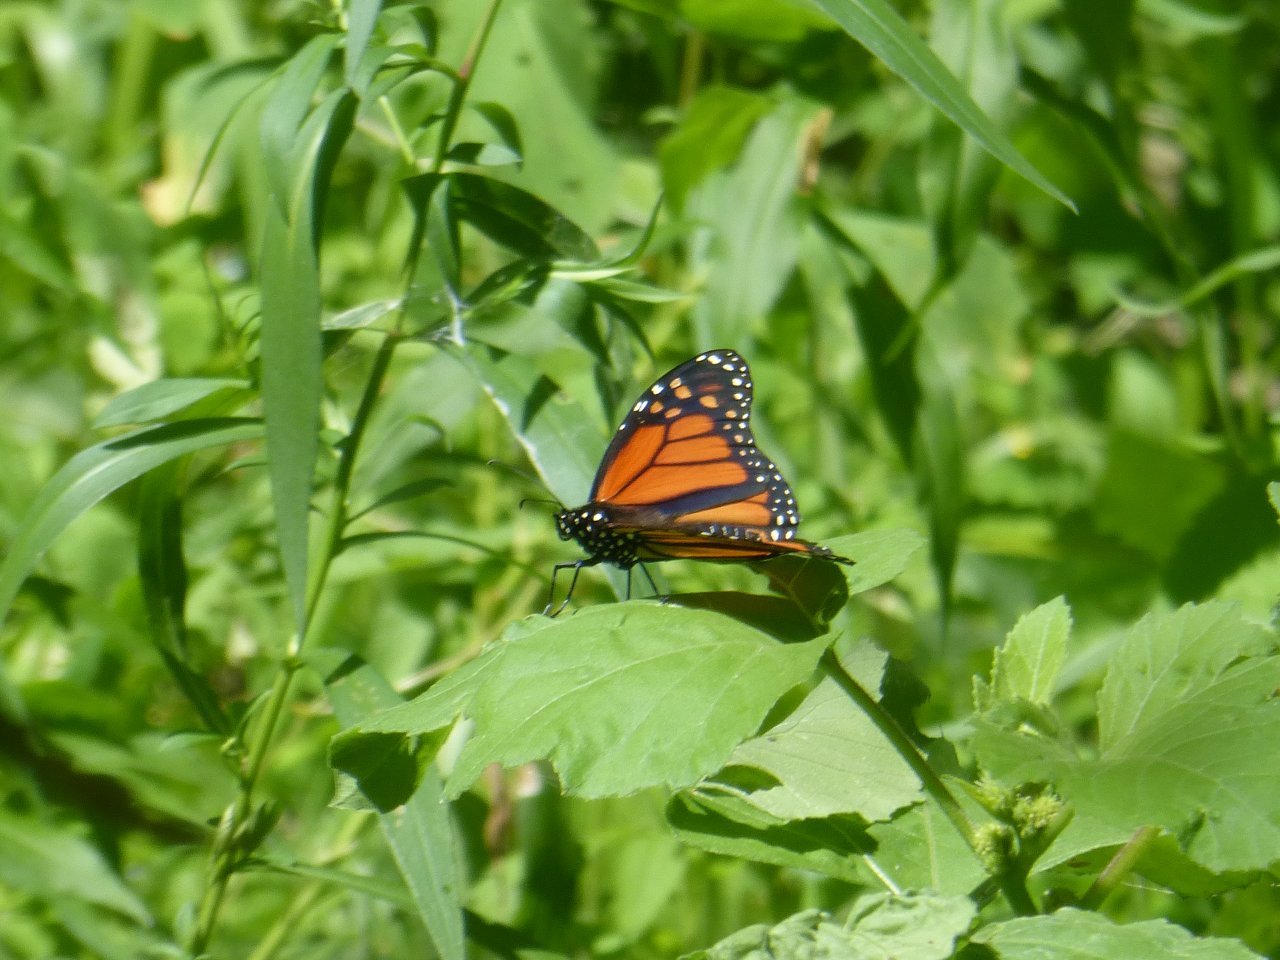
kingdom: Animalia
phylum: Arthropoda
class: Insecta
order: Lepidoptera
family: Nymphalidae
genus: Danaus
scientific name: Danaus plexippus
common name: Monarch
